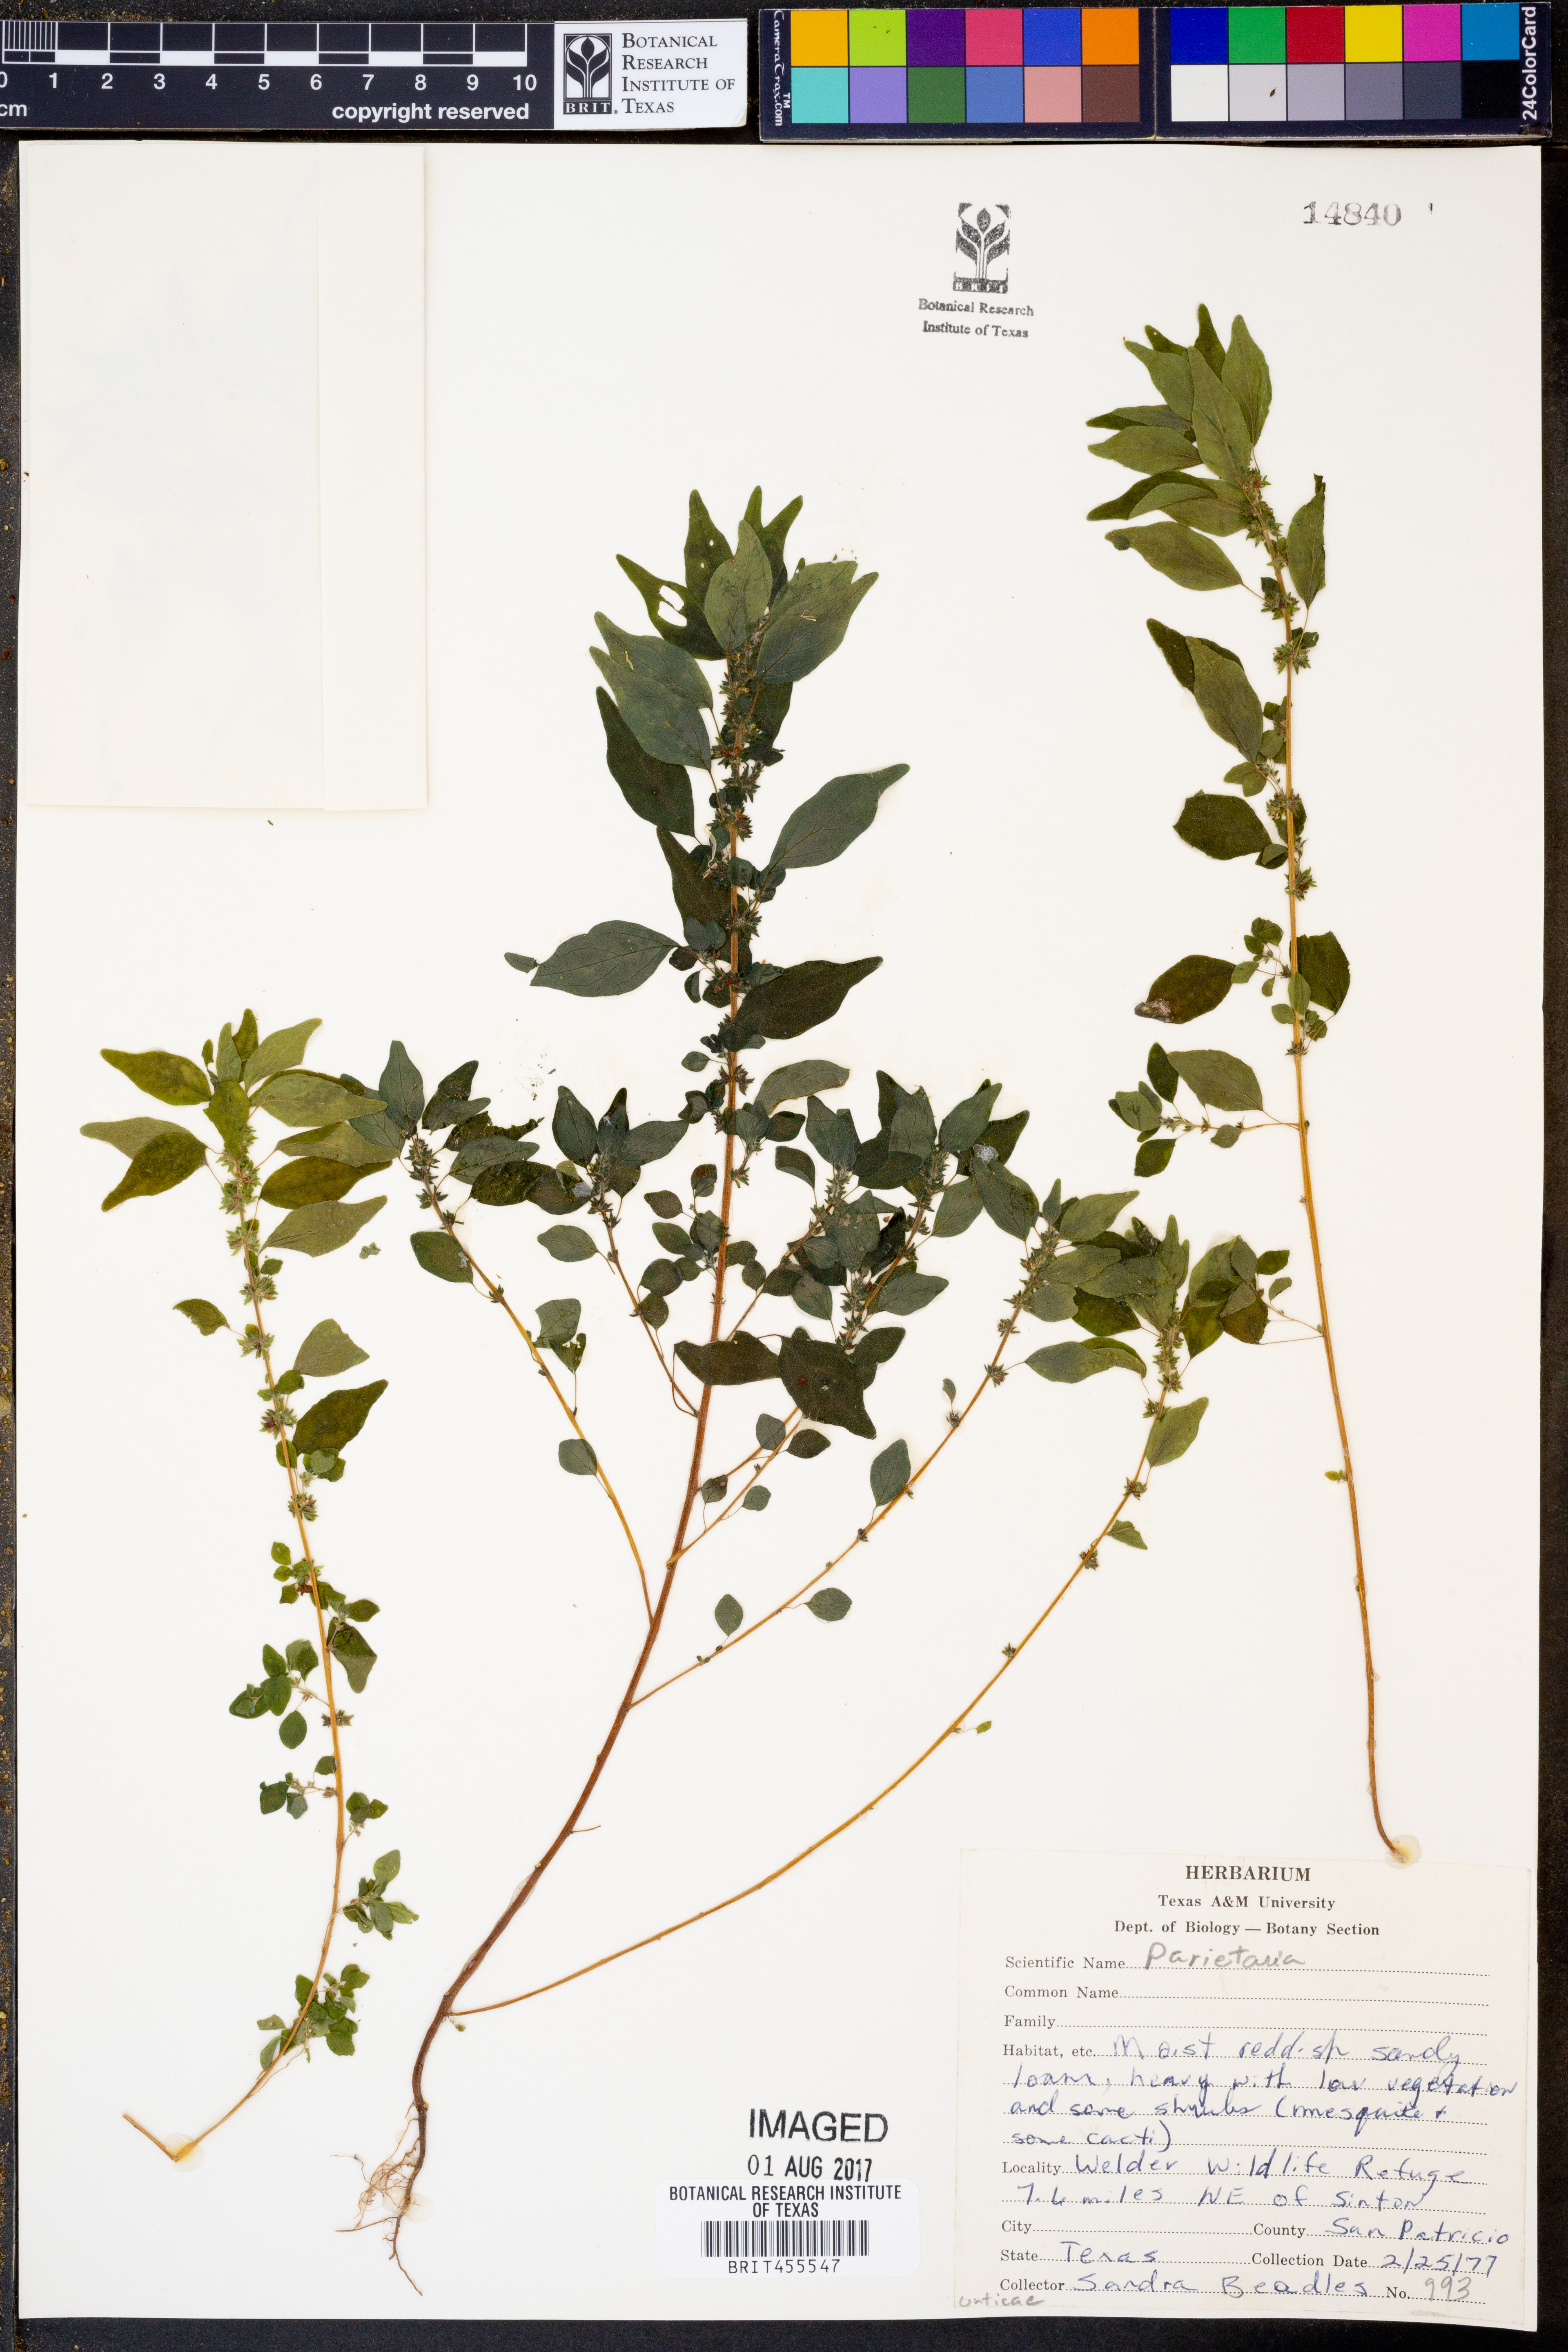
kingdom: Plantae
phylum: Tracheophyta
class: Magnoliopsida
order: Rosales
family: Urticaceae
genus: Parietaria
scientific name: Parietaria
